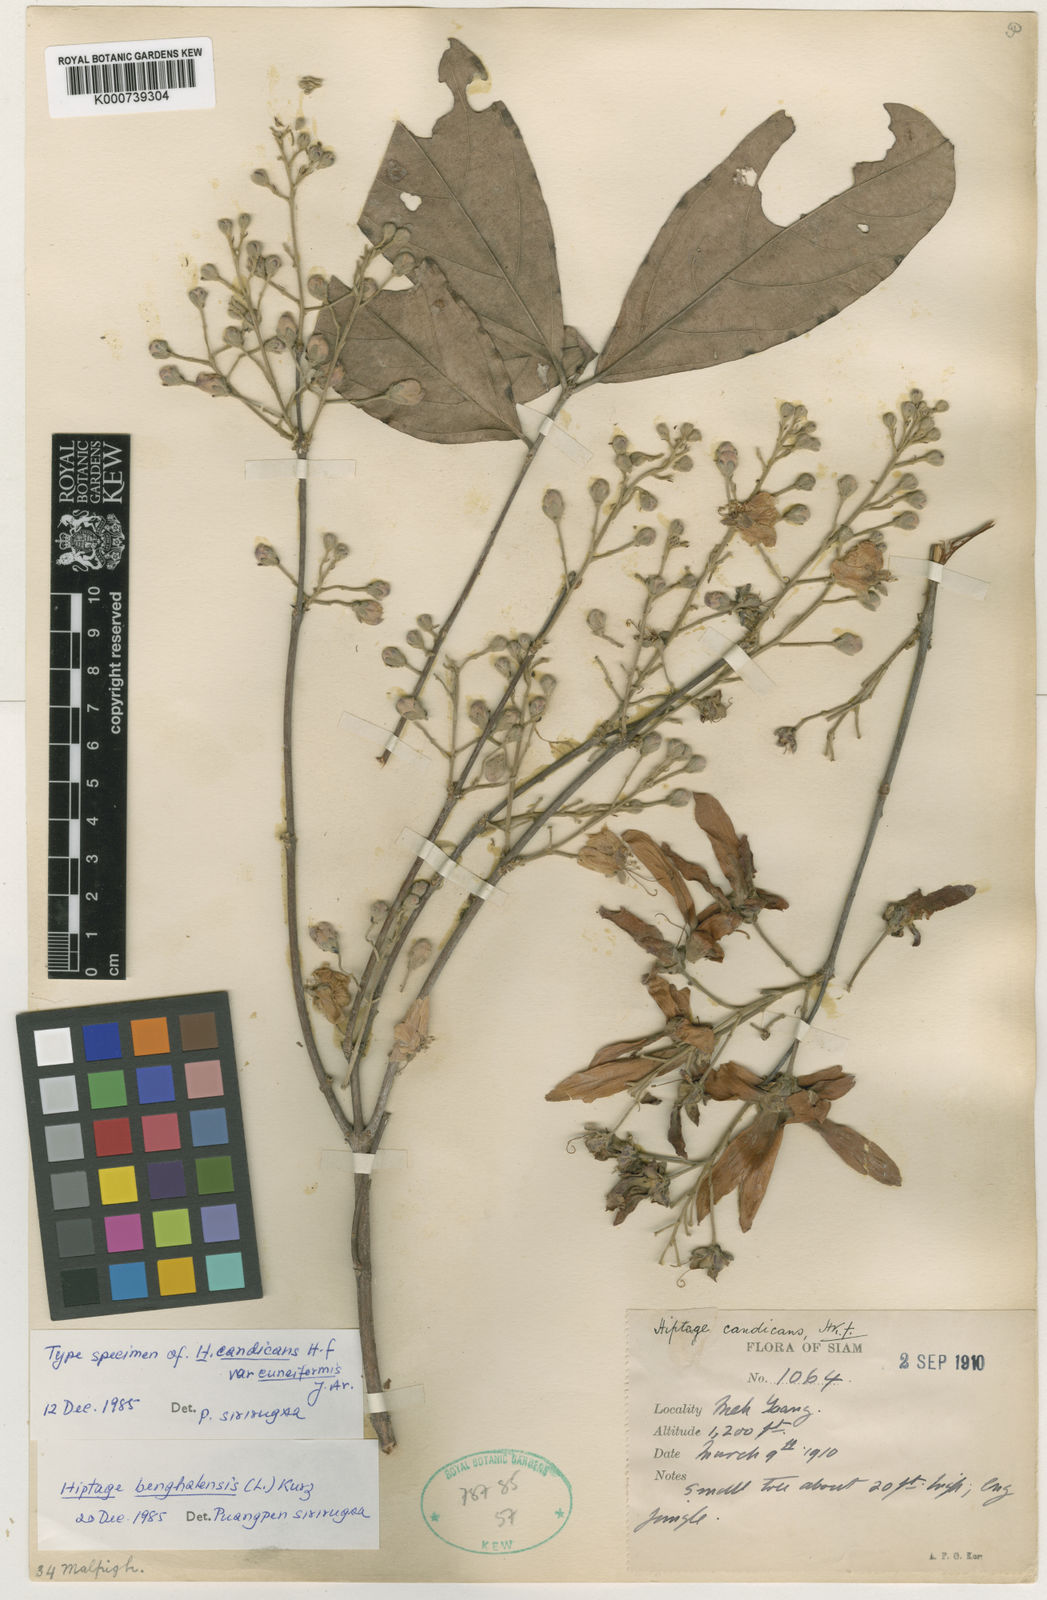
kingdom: Plantae
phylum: Tracheophyta
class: Magnoliopsida
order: Malpighiales
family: Malpighiaceae
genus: Hiptage
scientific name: Hiptage benghalensis
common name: Hiptage
